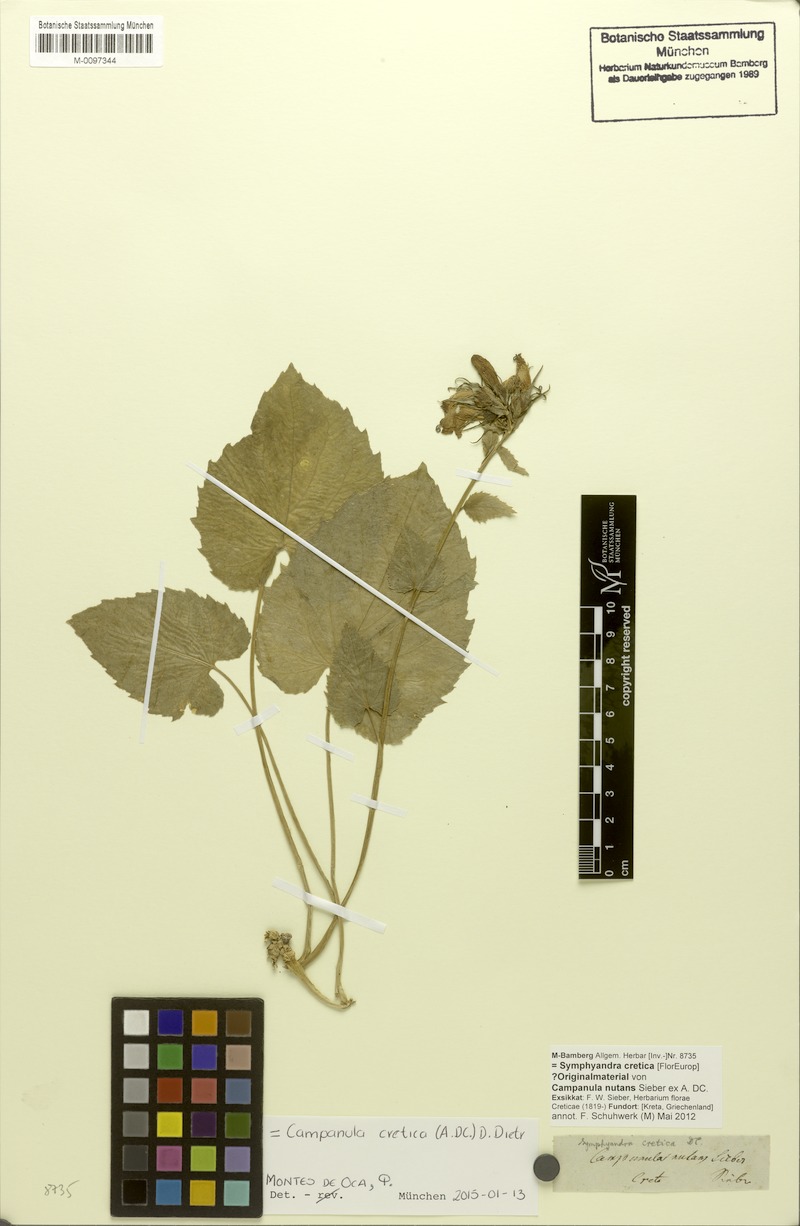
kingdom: Plantae
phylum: Tracheophyta
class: Magnoliopsida
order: Asterales
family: Campanulaceae
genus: Campanula
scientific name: Campanula cretica
